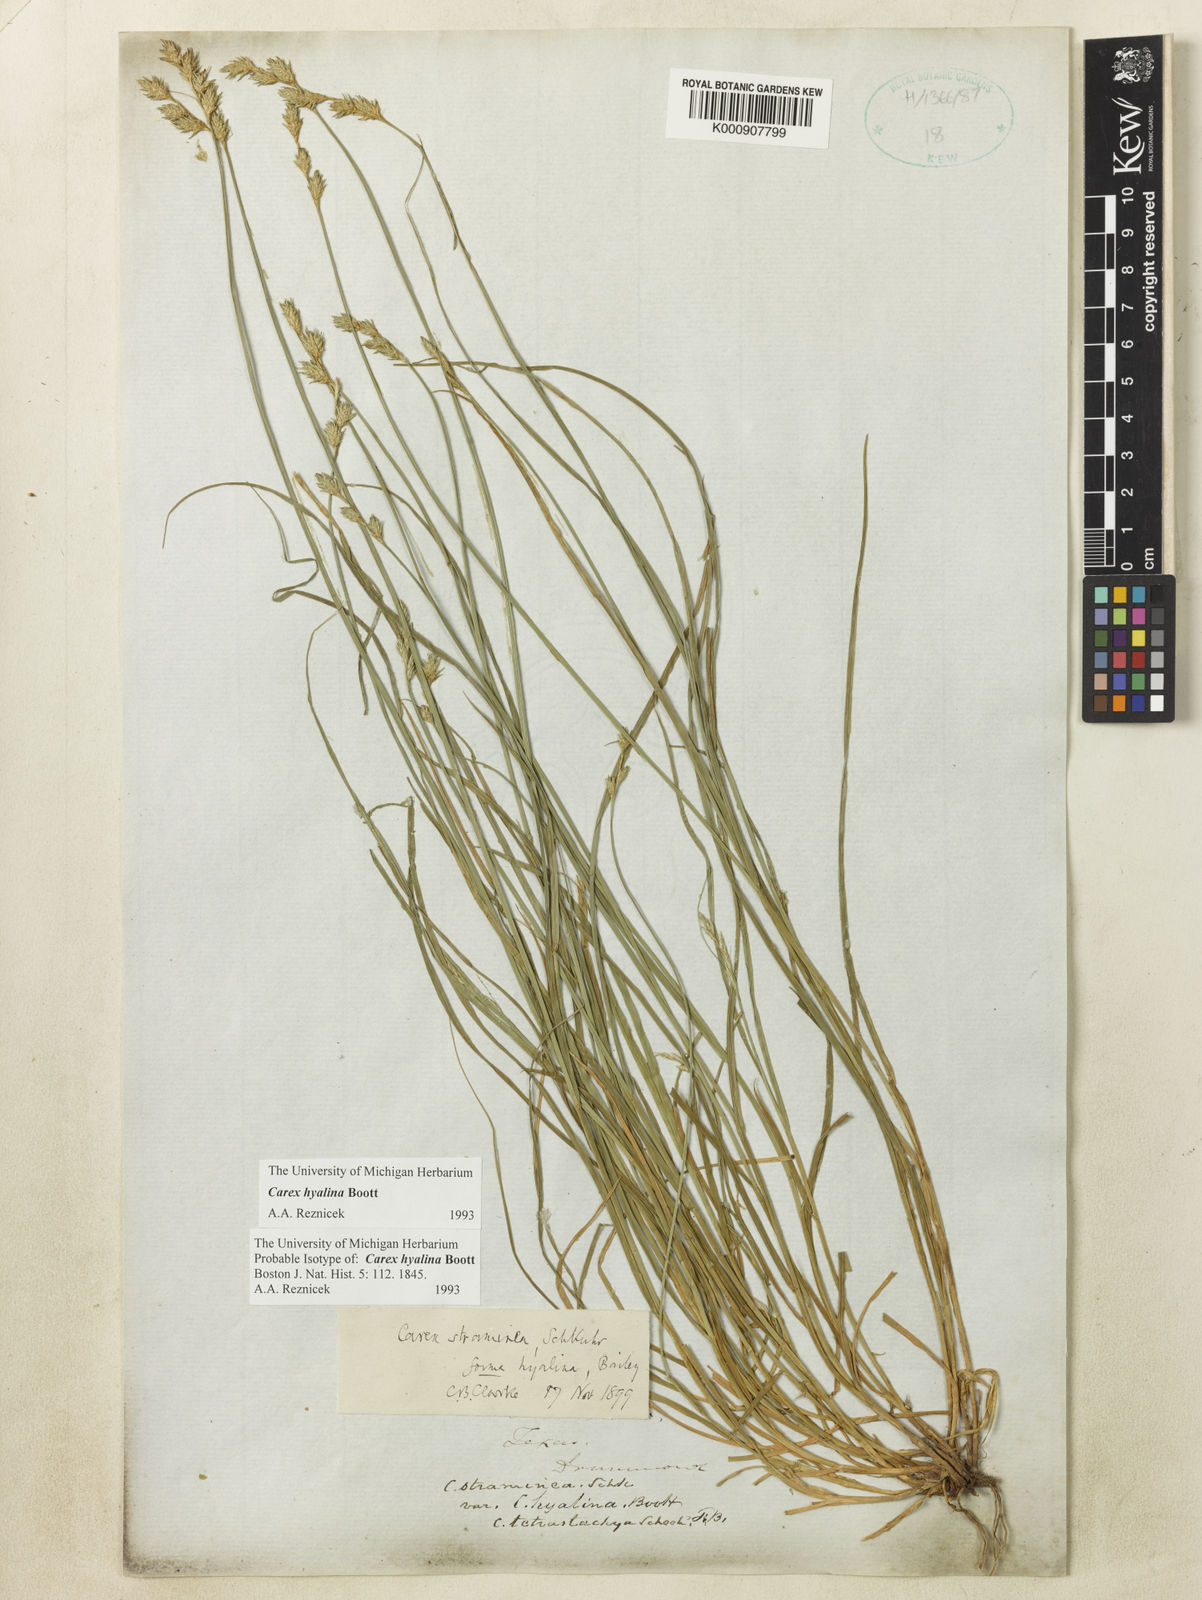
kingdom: Plantae
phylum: Tracheophyta
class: Liliopsida
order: Poales
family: Cyperaceae
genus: Carex
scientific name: Carex hyalina
